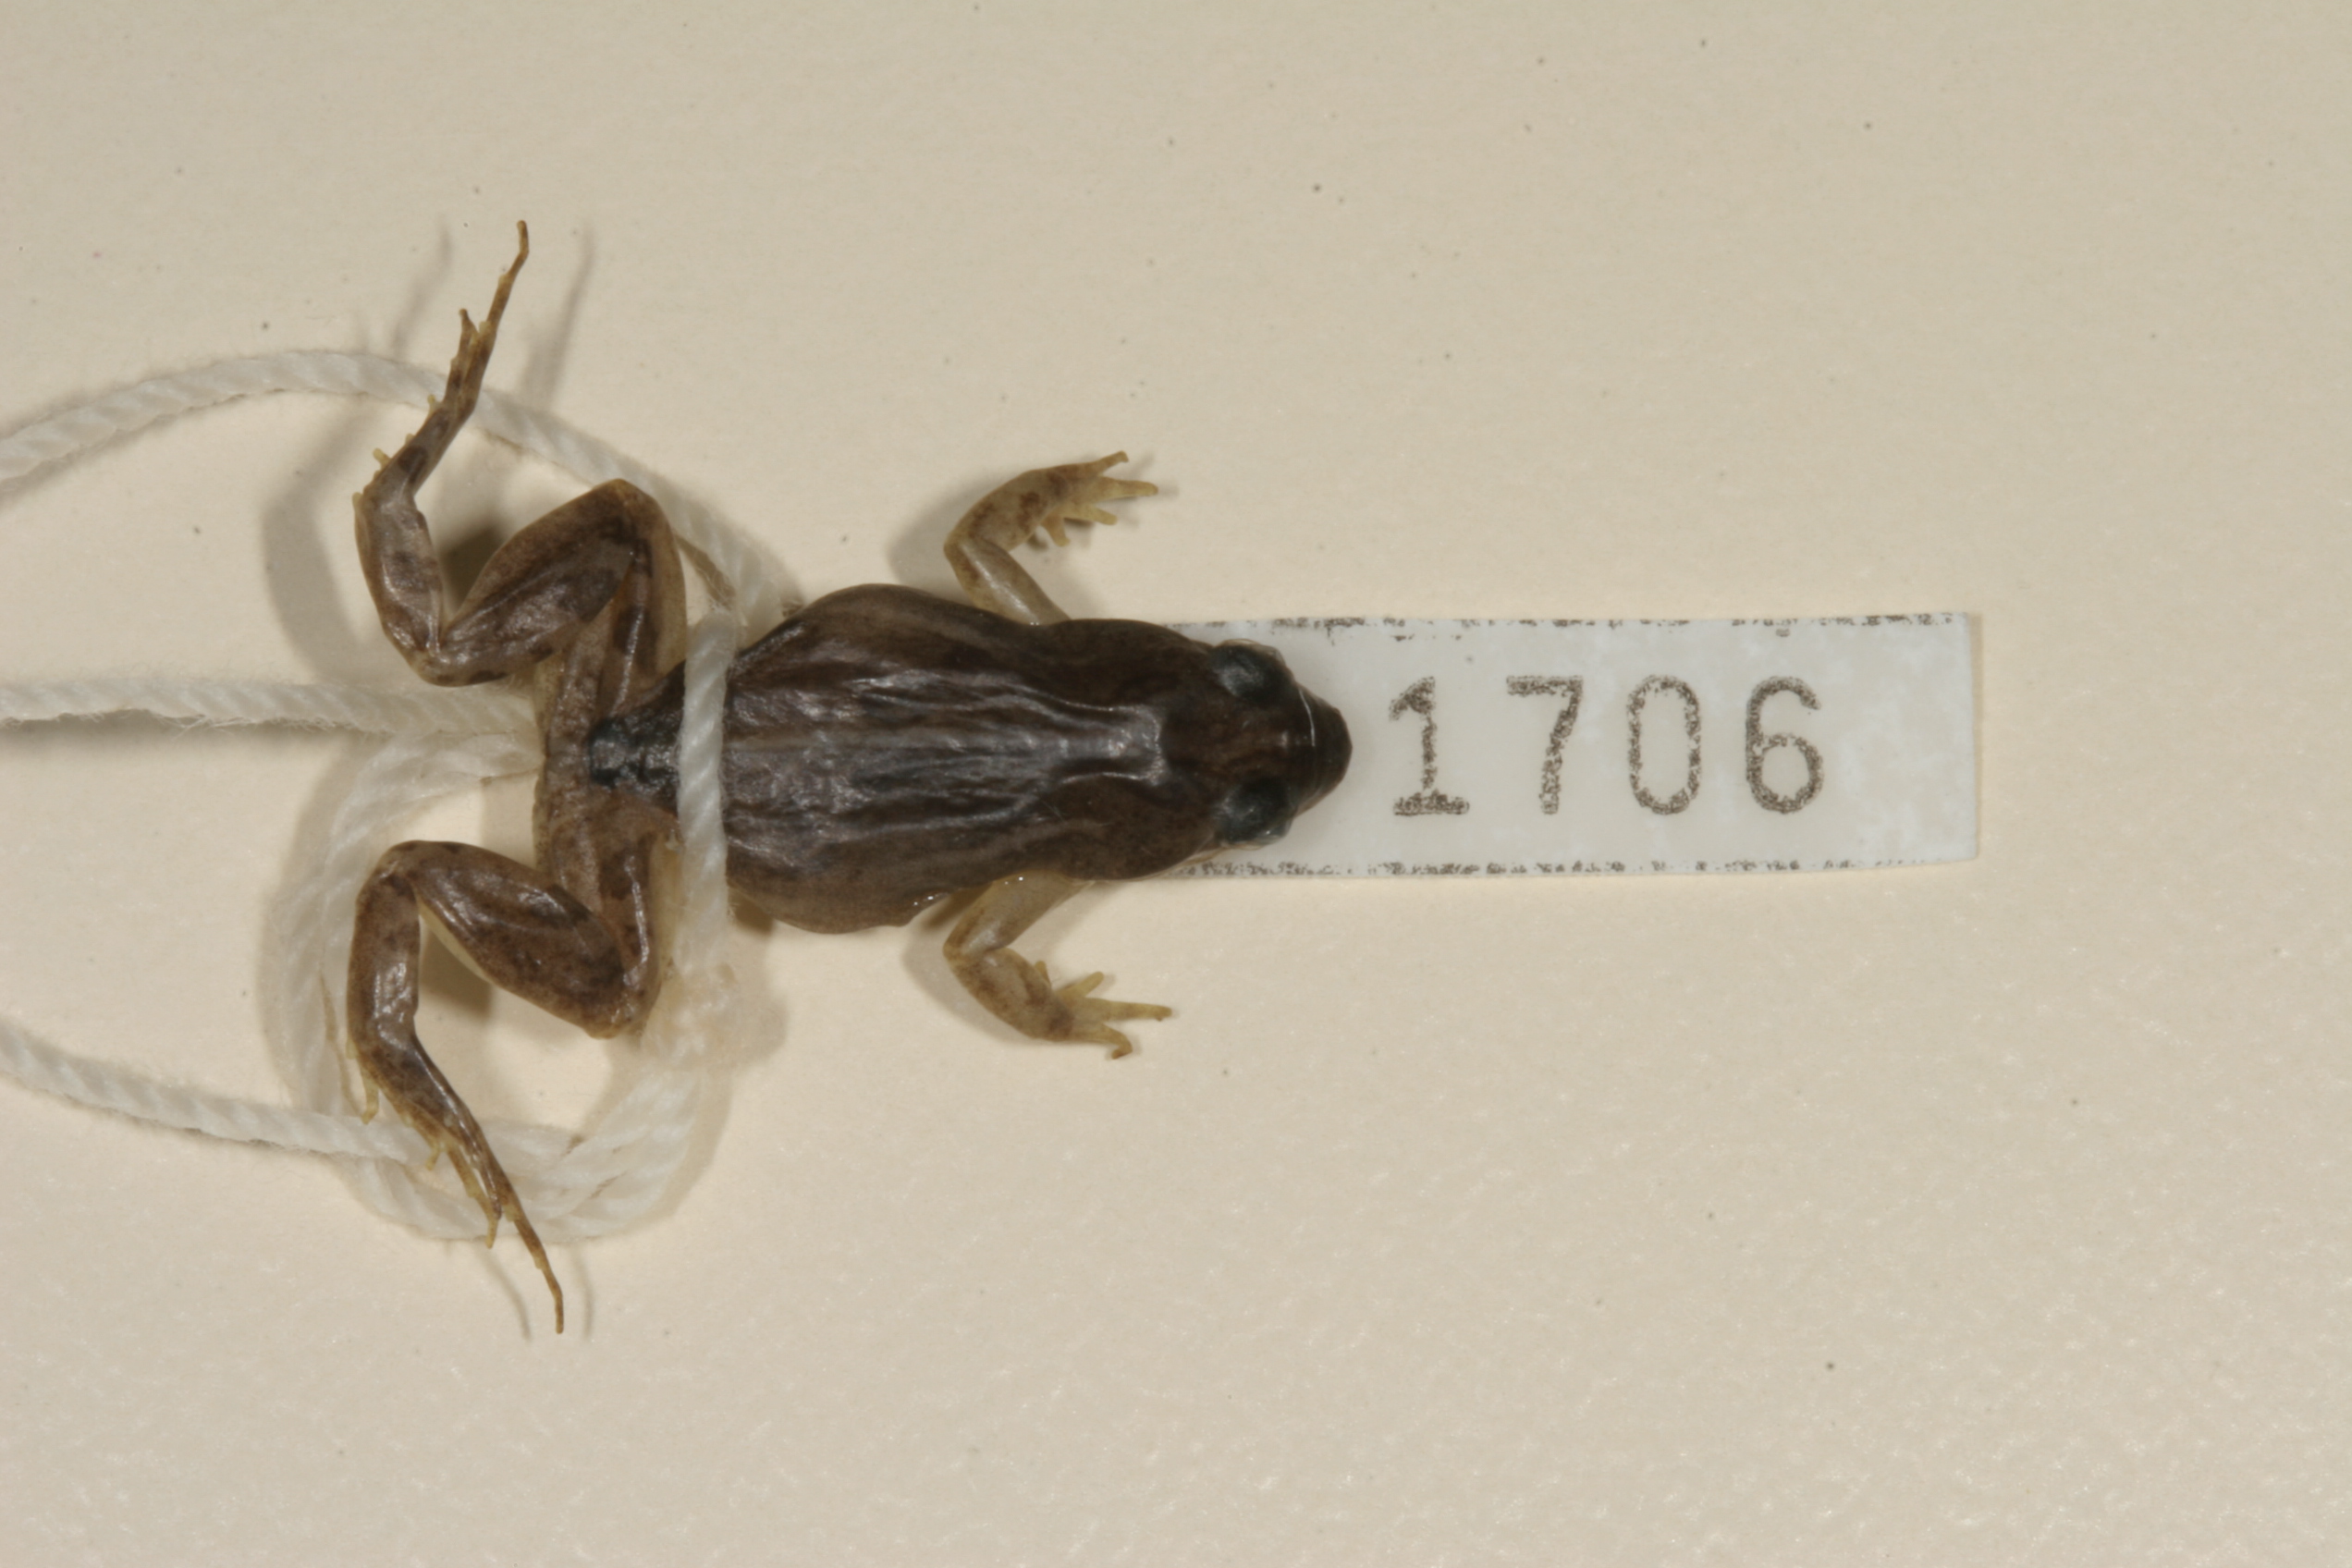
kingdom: Animalia
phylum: Chordata
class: Amphibia
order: Anura
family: Pyxicephalidae
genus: Cacosternum
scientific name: Cacosternum boettgeri
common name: Boettger's frog
